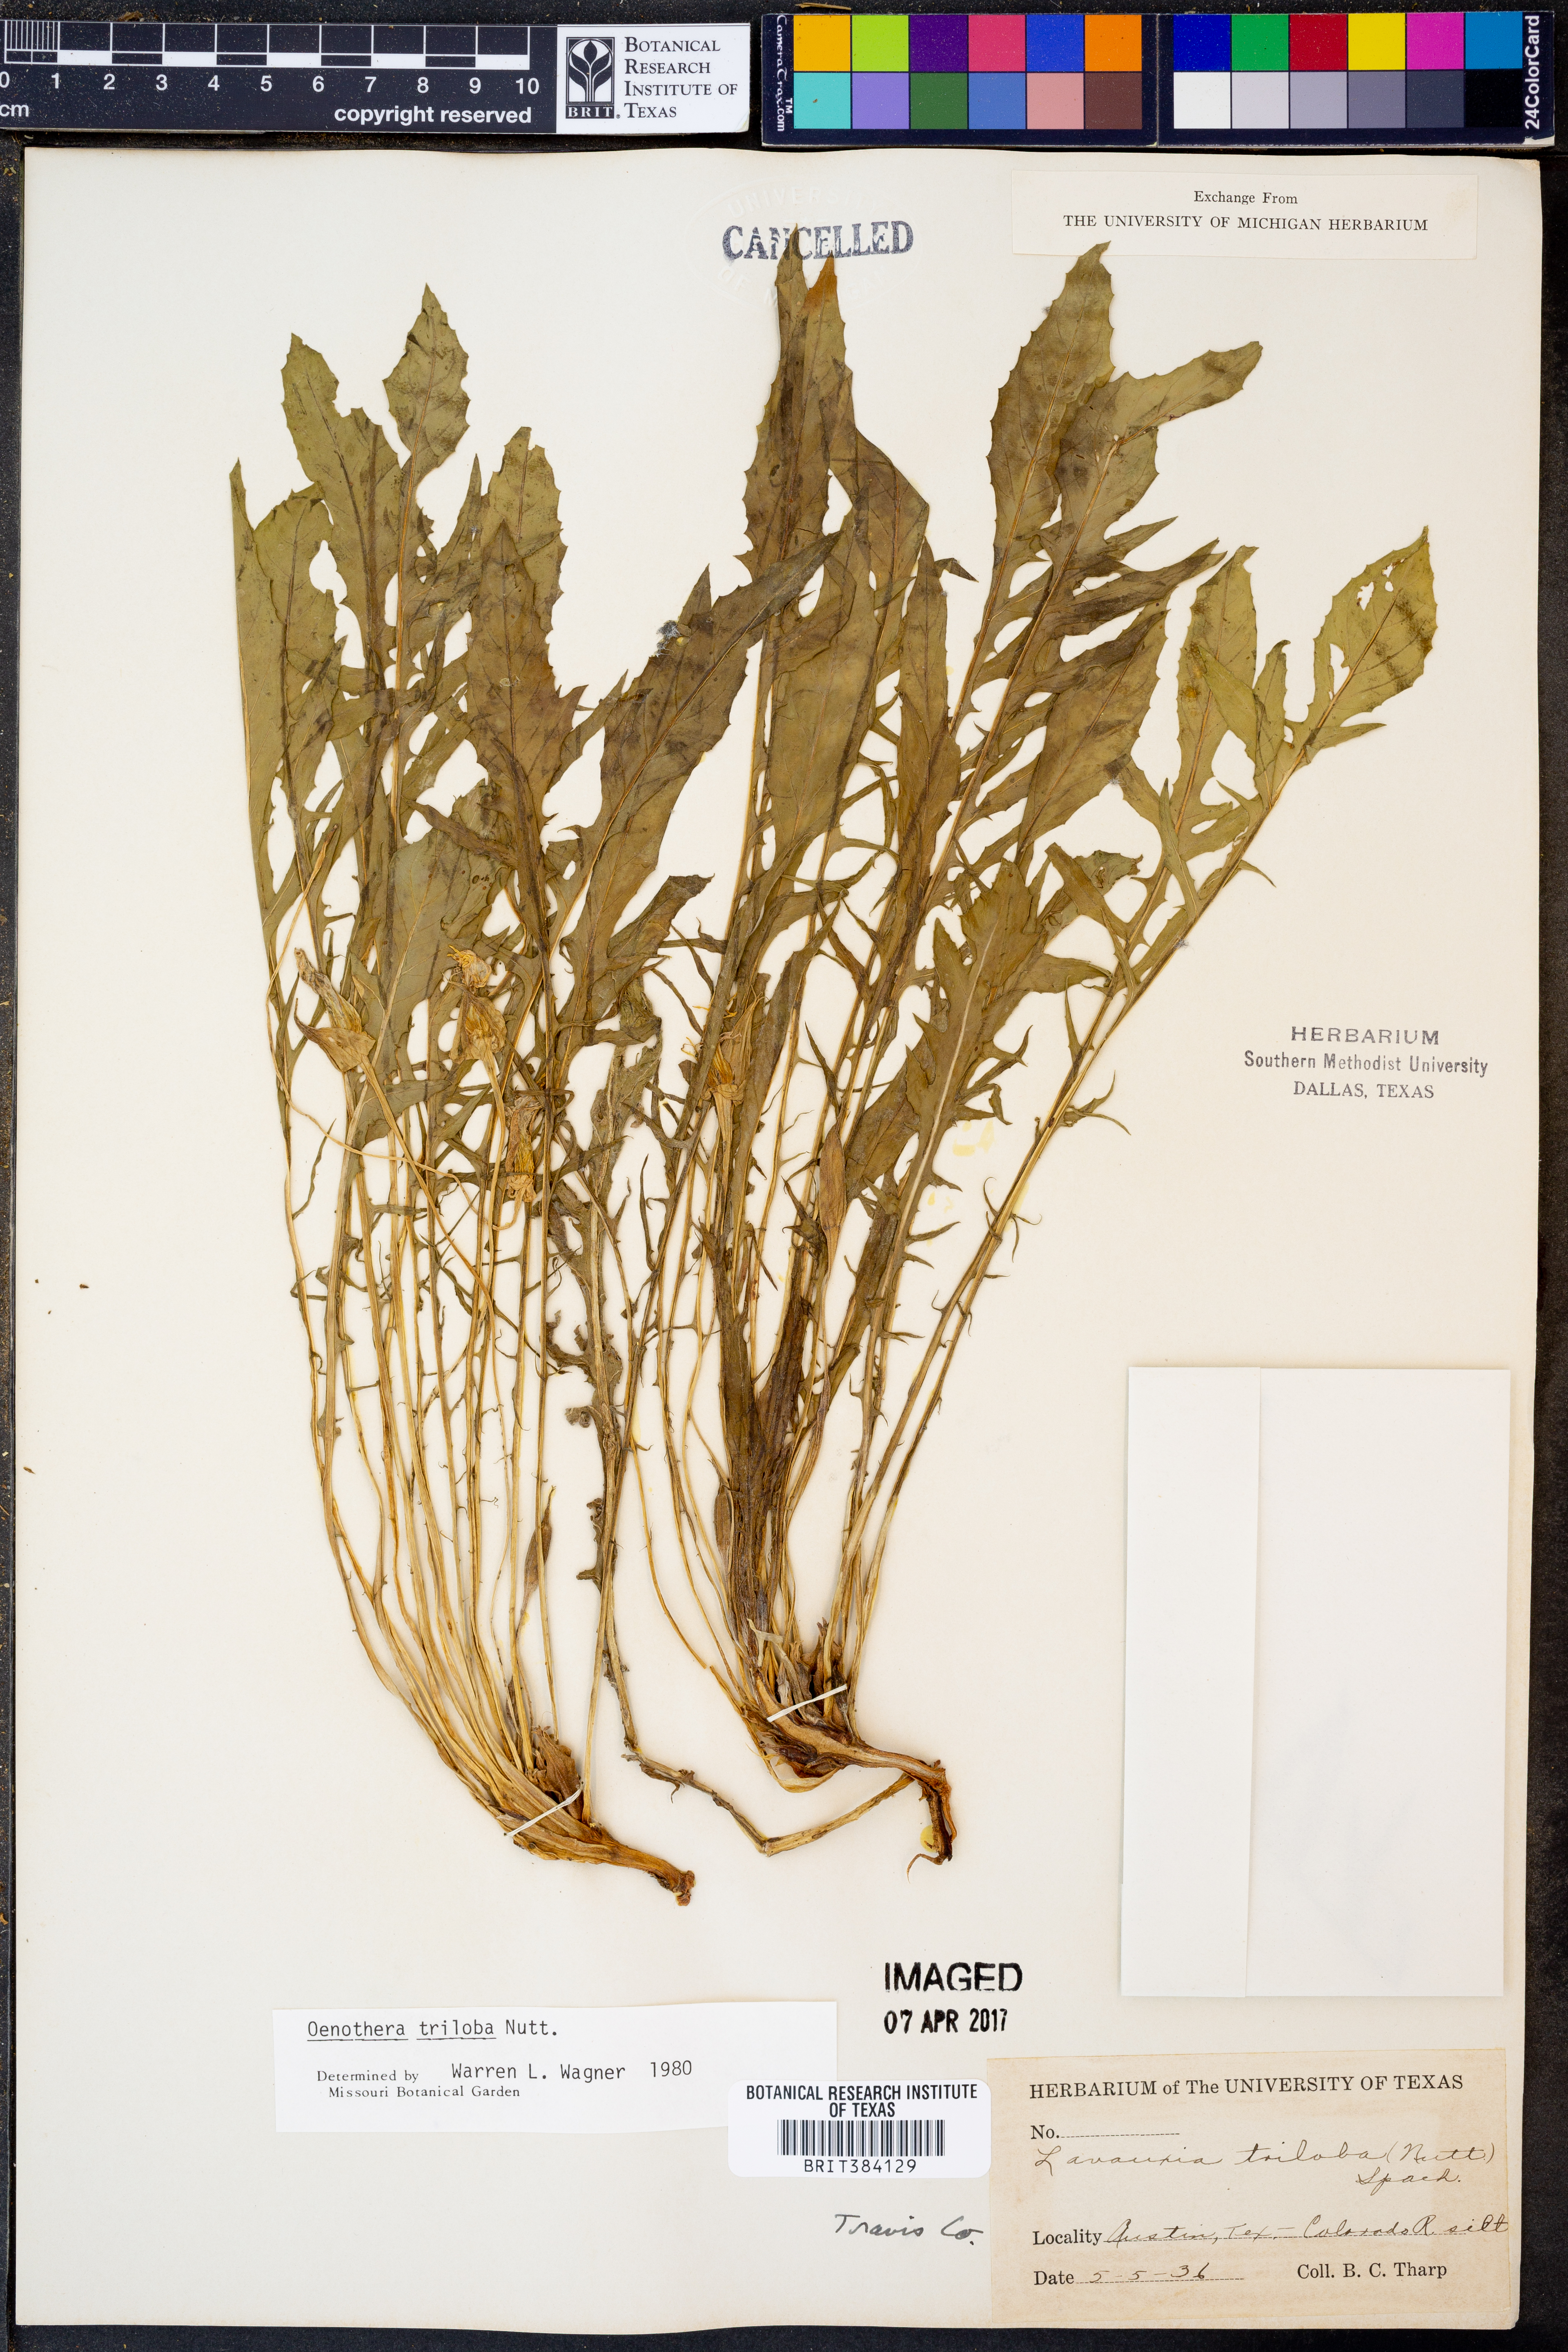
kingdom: Plantae
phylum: Tracheophyta
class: Magnoliopsida
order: Myrtales
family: Onagraceae
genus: Oenothera
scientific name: Oenothera triloba
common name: Sessile evening-primrose
